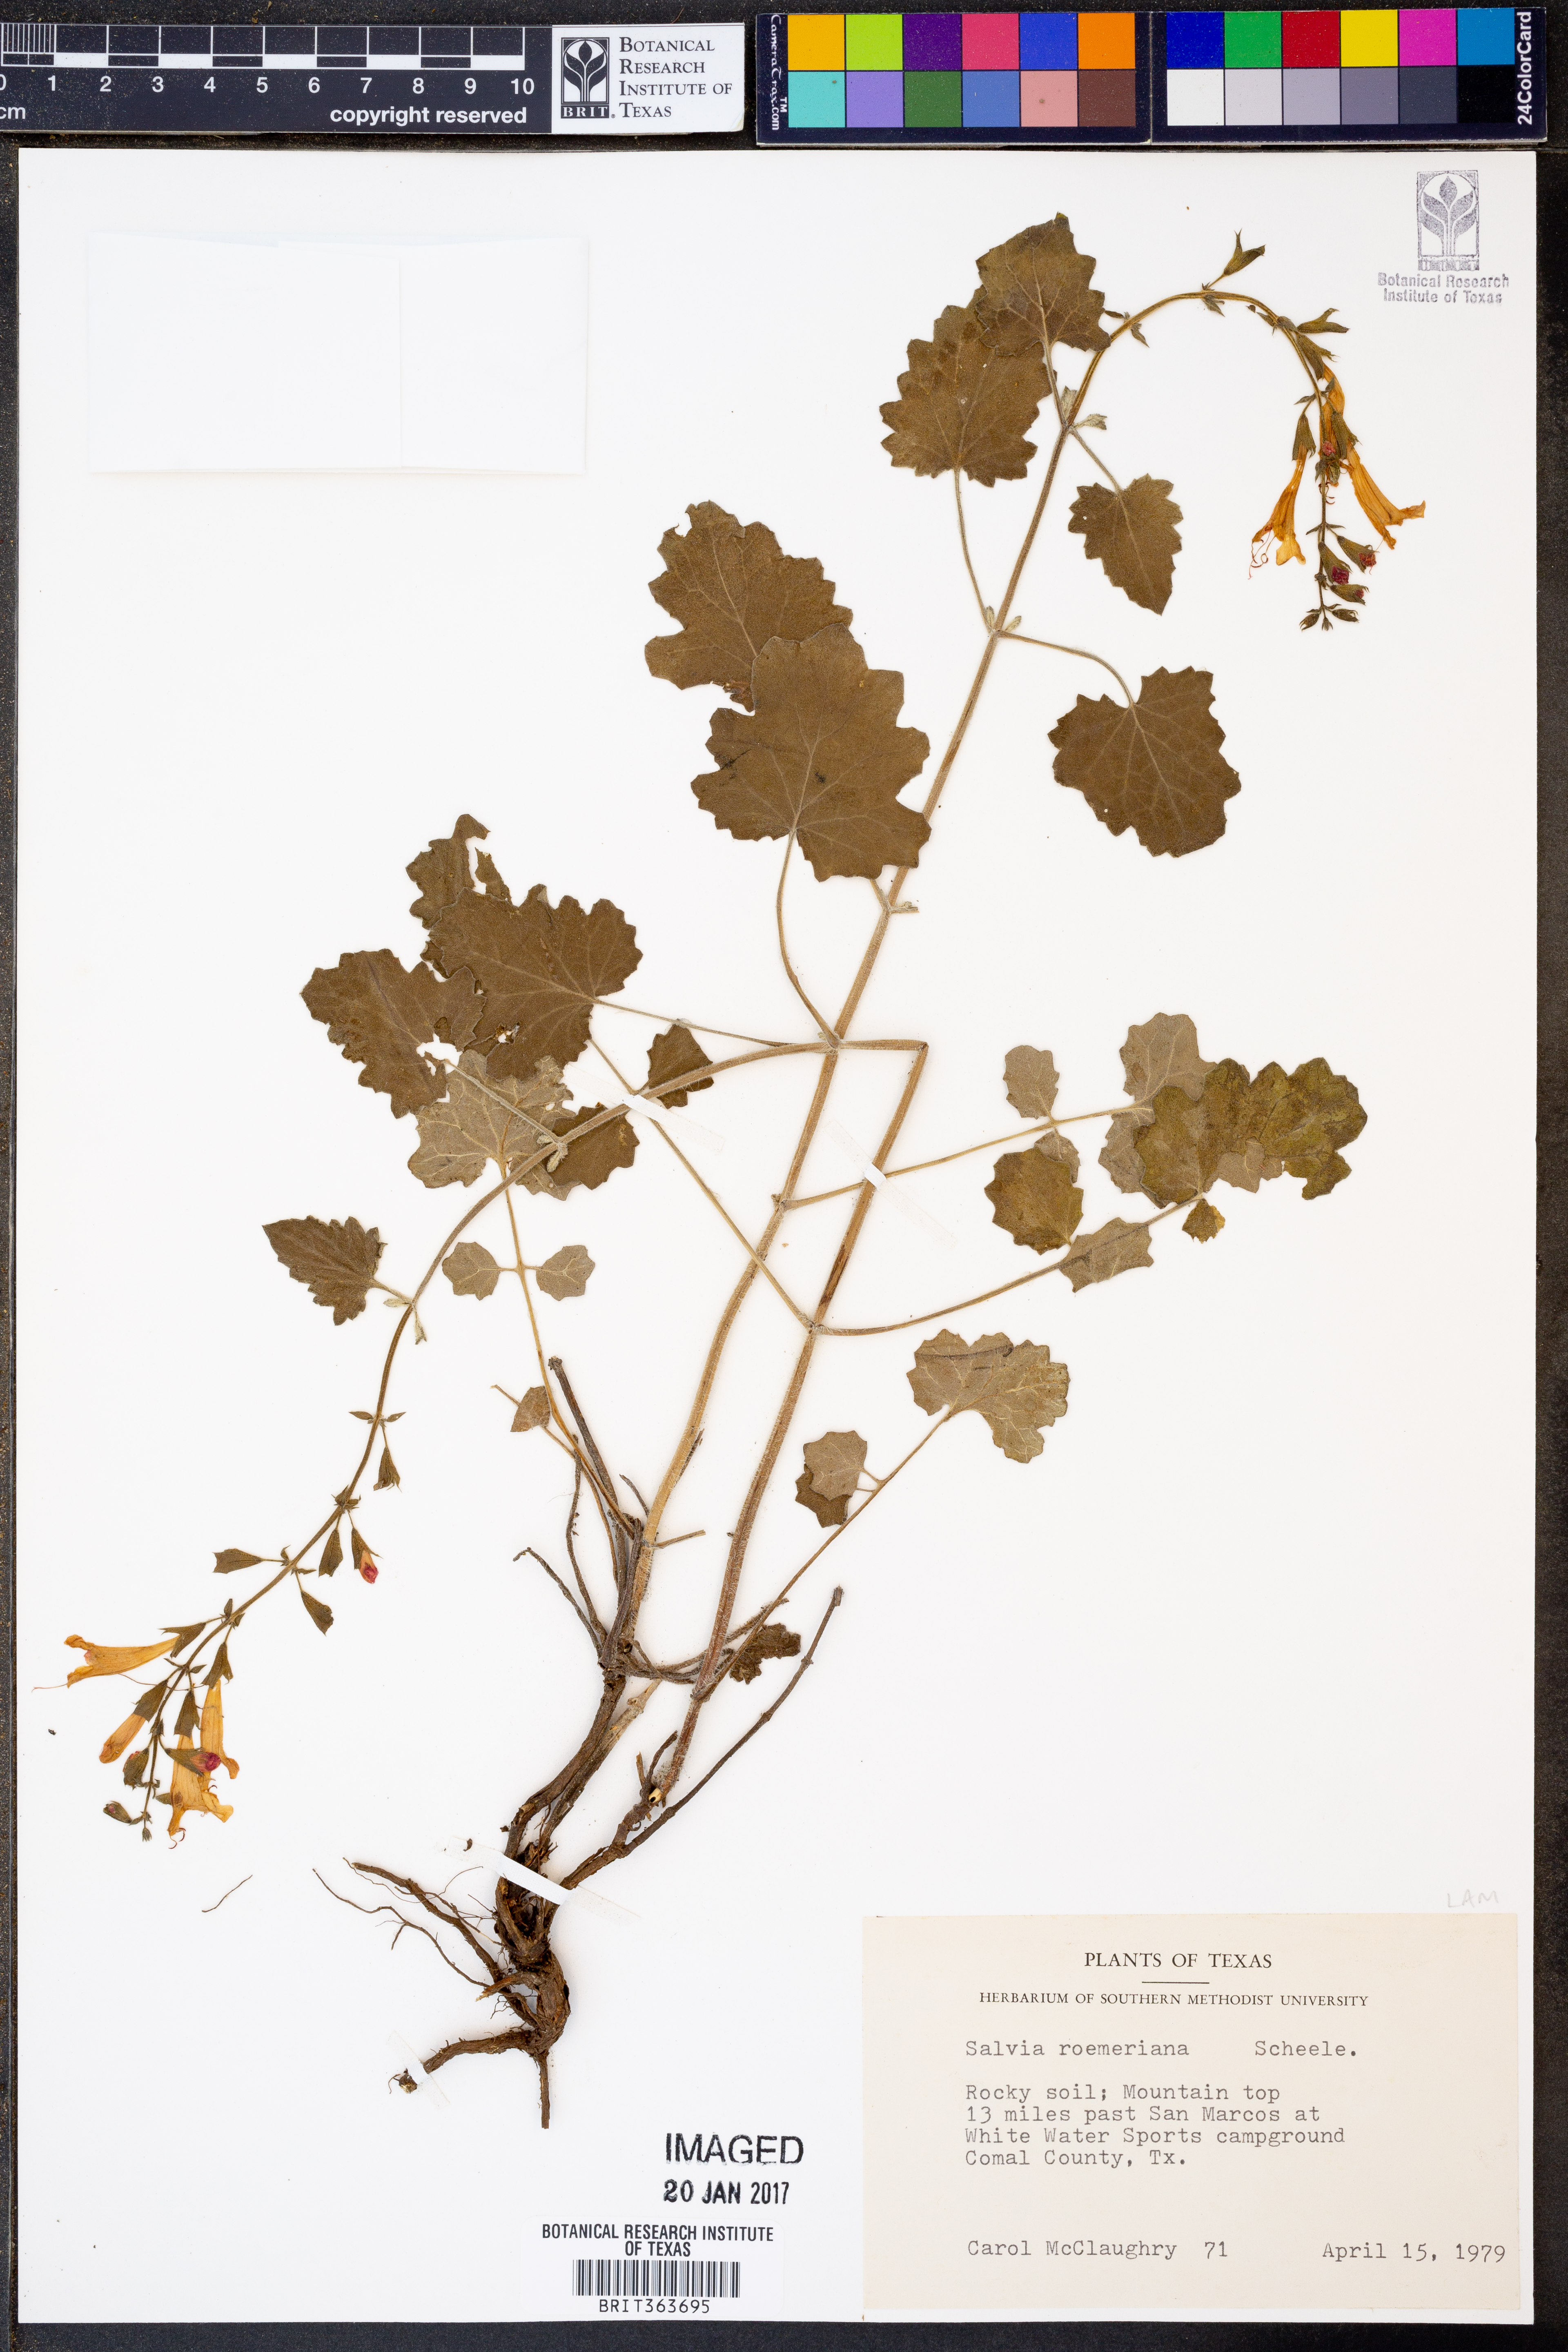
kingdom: Plantae
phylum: Tracheophyta
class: Magnoliopsida
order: Lamiales
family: Lamiaceae
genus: Salvia
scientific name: Salvia roemeriana
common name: Cedar sage
